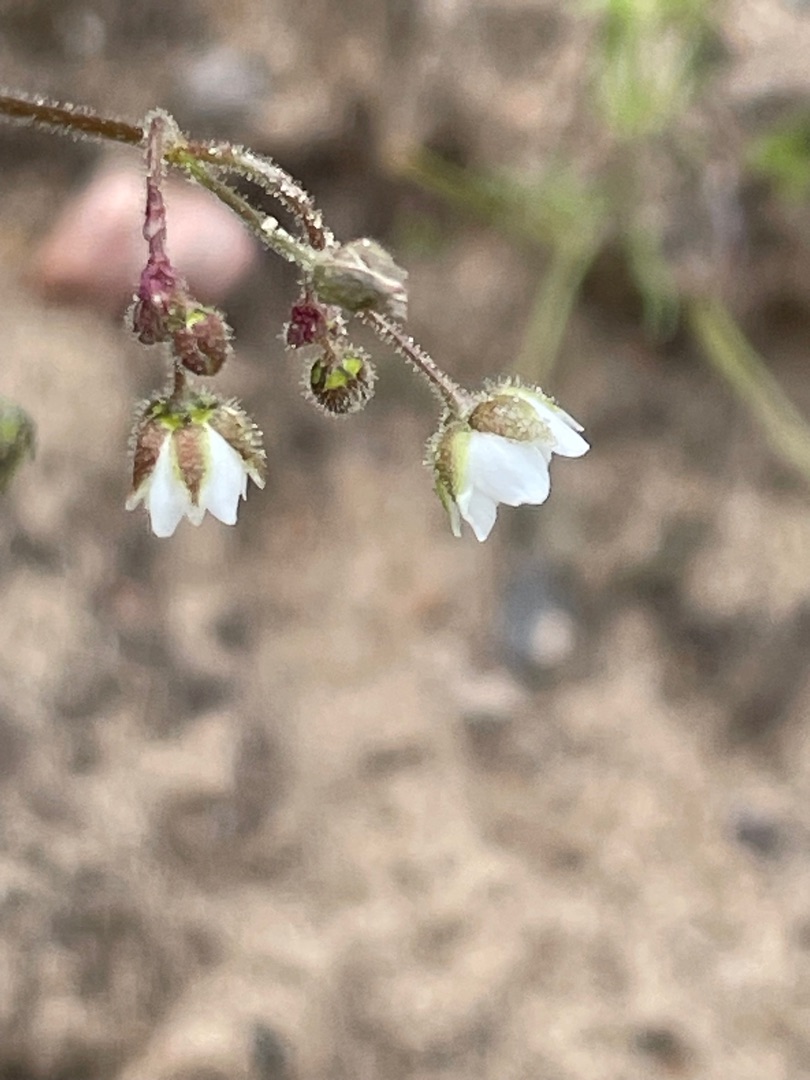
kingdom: Plantae
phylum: Tracheophyta
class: Magnoliopsida
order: Caryophyllales
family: Caryophyllaceae
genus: Spergula
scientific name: Spergula arvensis
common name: Almindelig spergel (underart)
